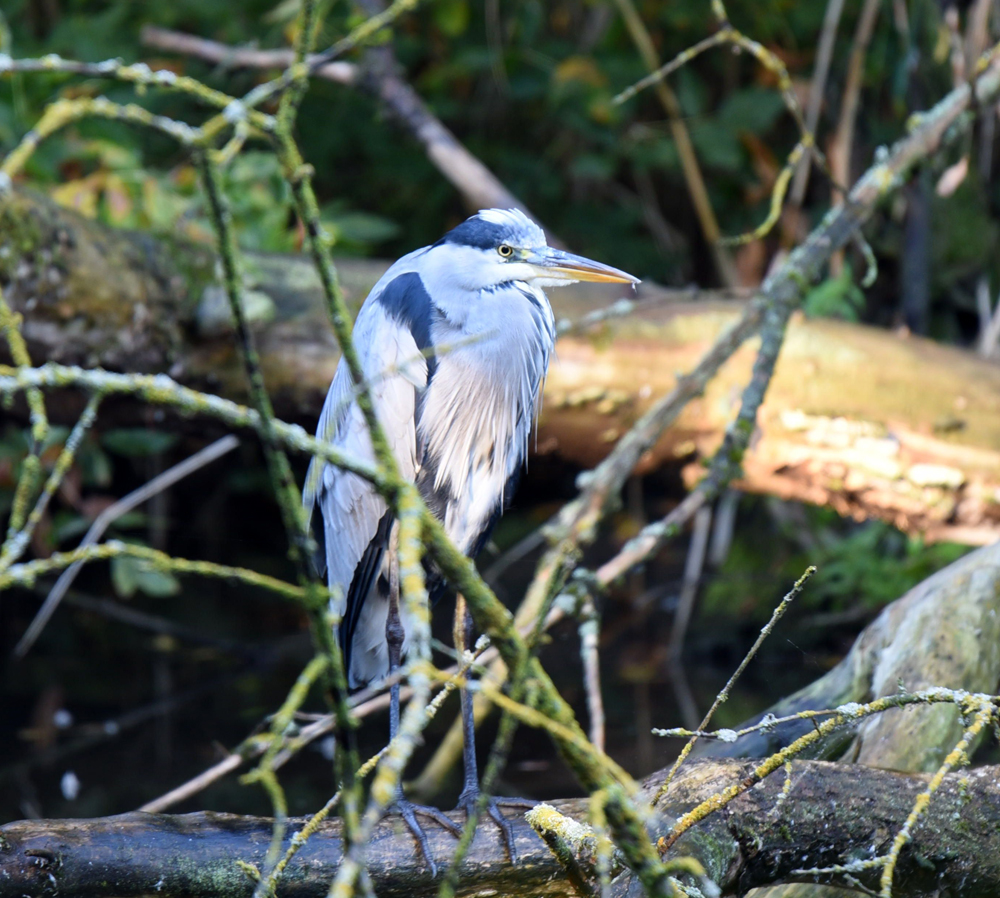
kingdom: Animalia
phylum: Chordata
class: Aves
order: Pelecaniformes
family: Ardeidae
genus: Ardea
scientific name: Ardea cinerea
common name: Grey heron
